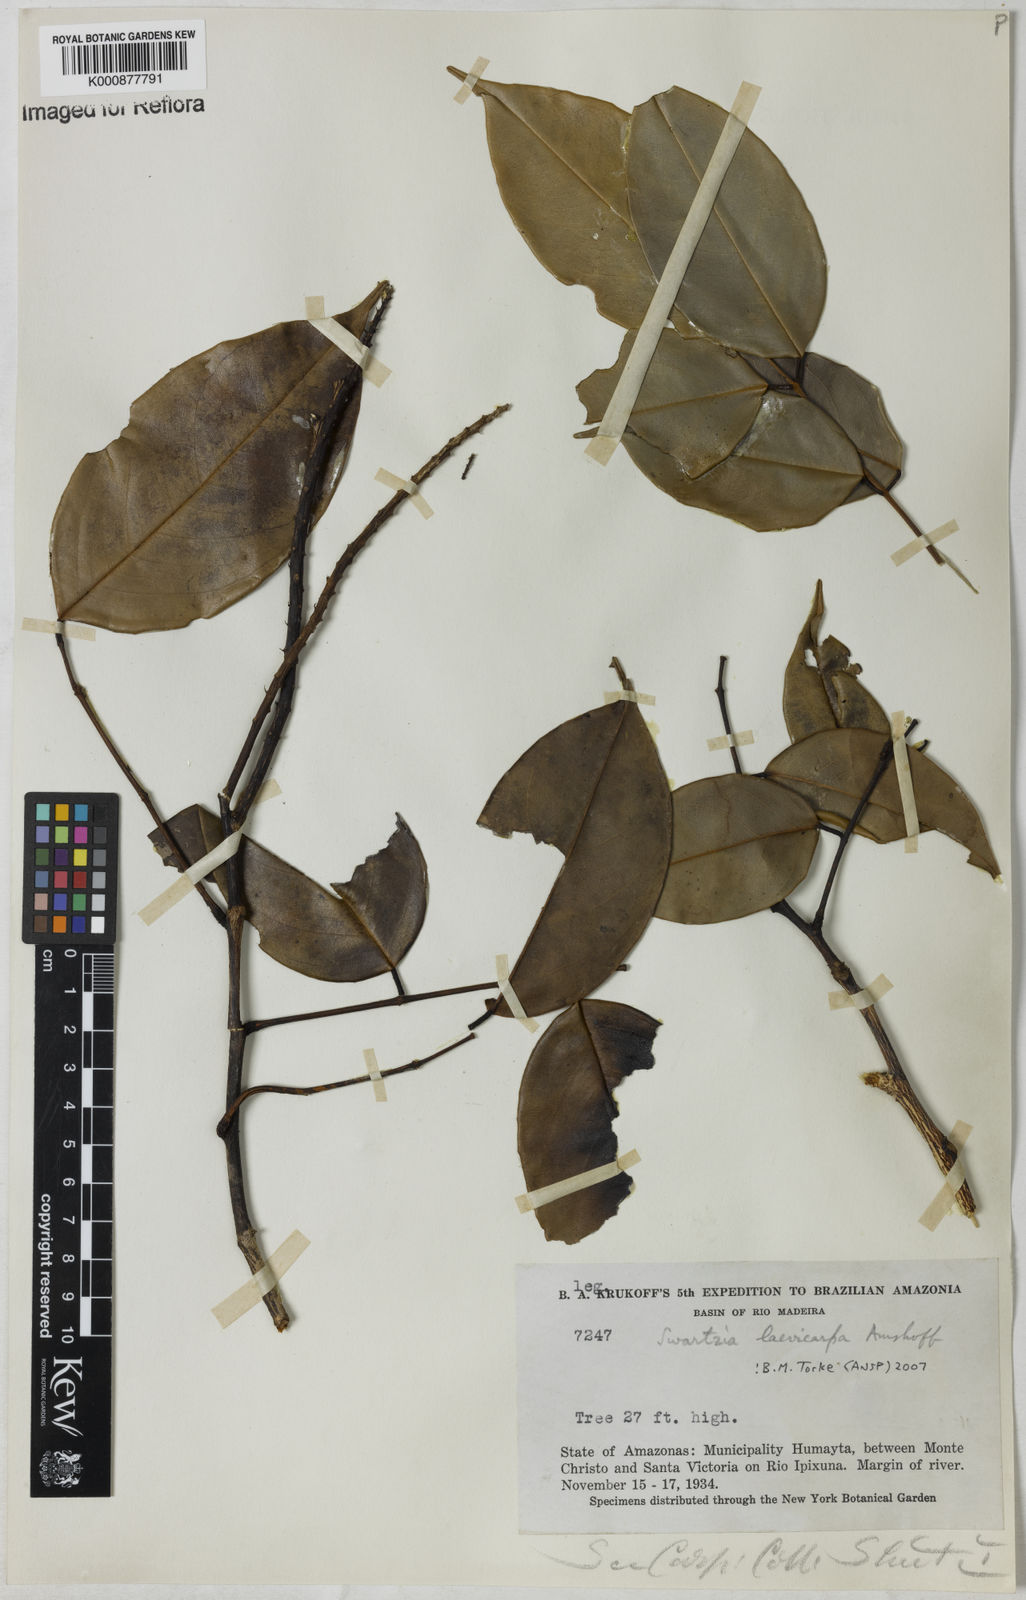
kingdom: Plantae
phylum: Tracheophyta
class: Magnoliopsida
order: Fabales
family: Fabaceae
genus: Swartzia
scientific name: Swartzia laevicarpa
